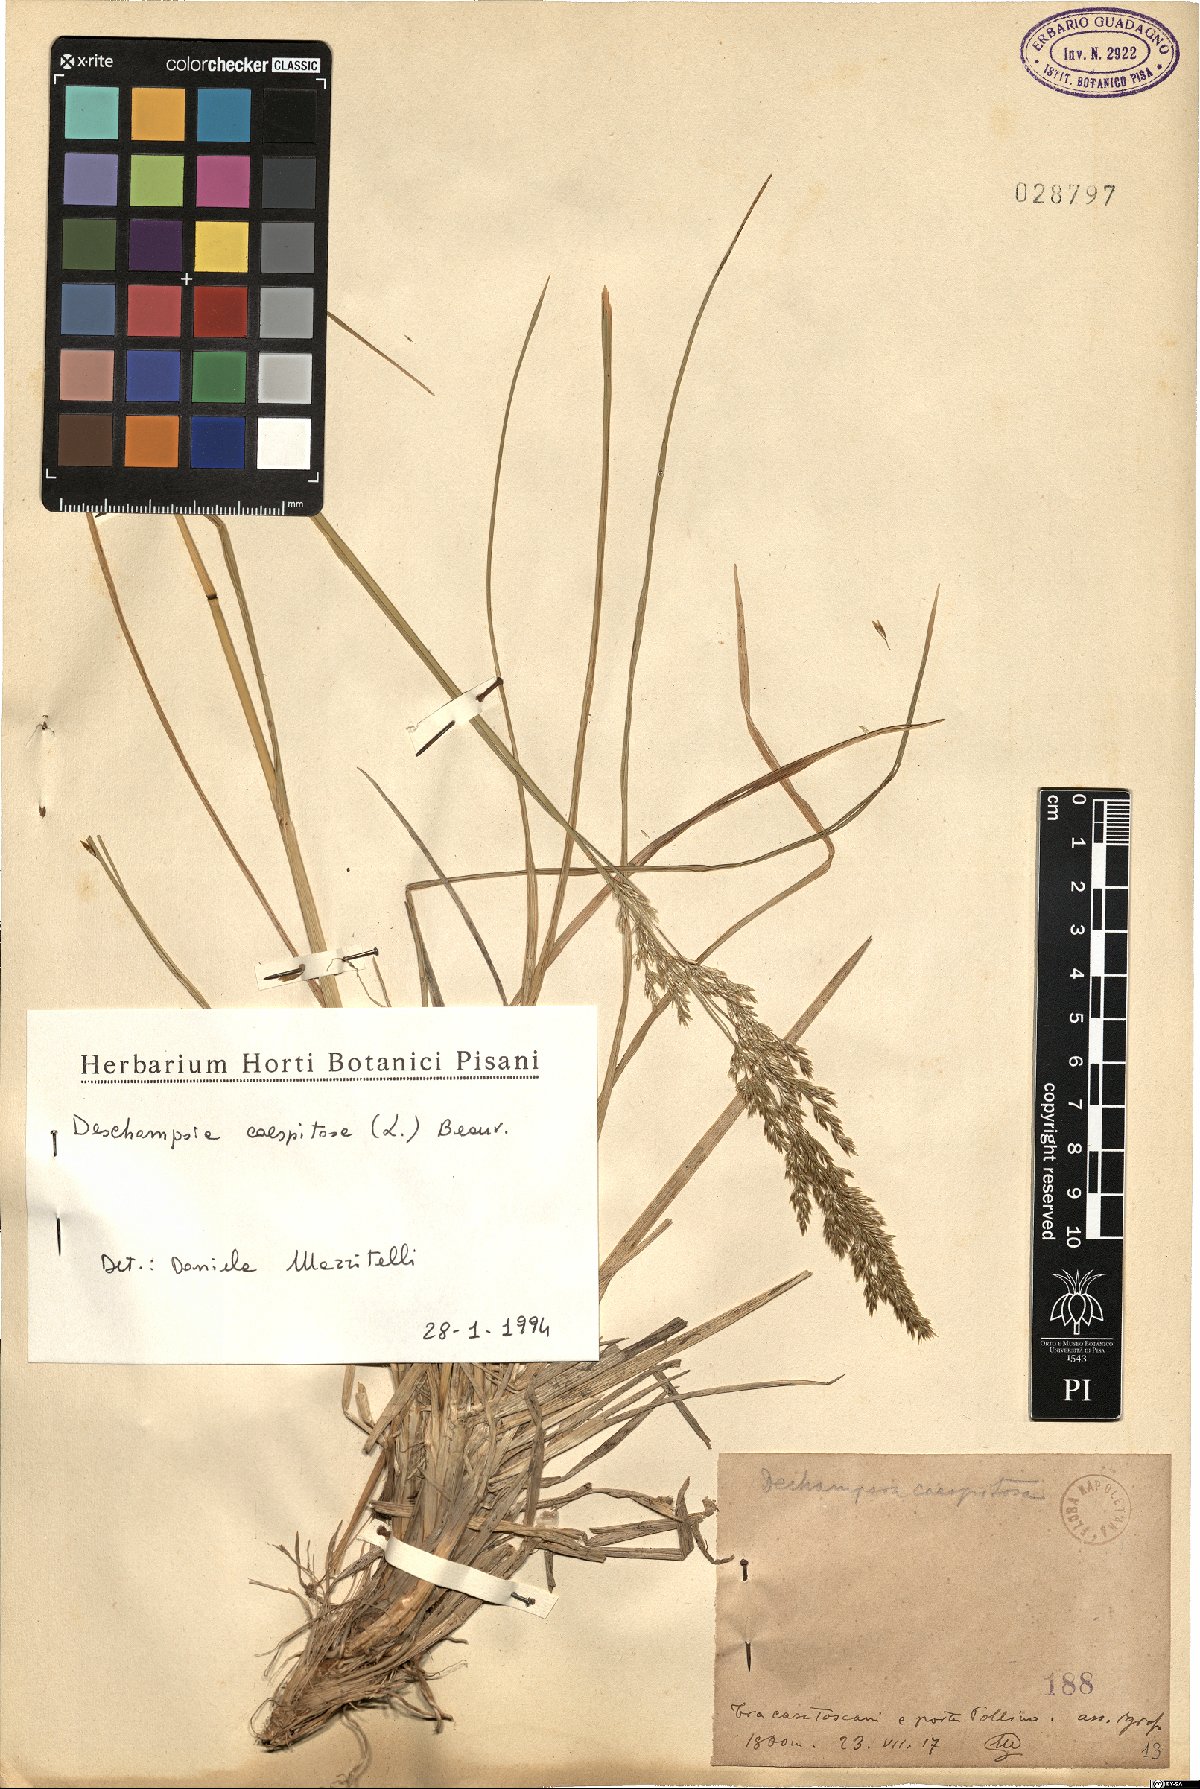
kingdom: Plantae
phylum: Tracheophyta
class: Liliopsida
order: Poales
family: Poaceae
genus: Deschampsia
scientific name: Deschampsia cespitosa
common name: Tufted hair-grass
